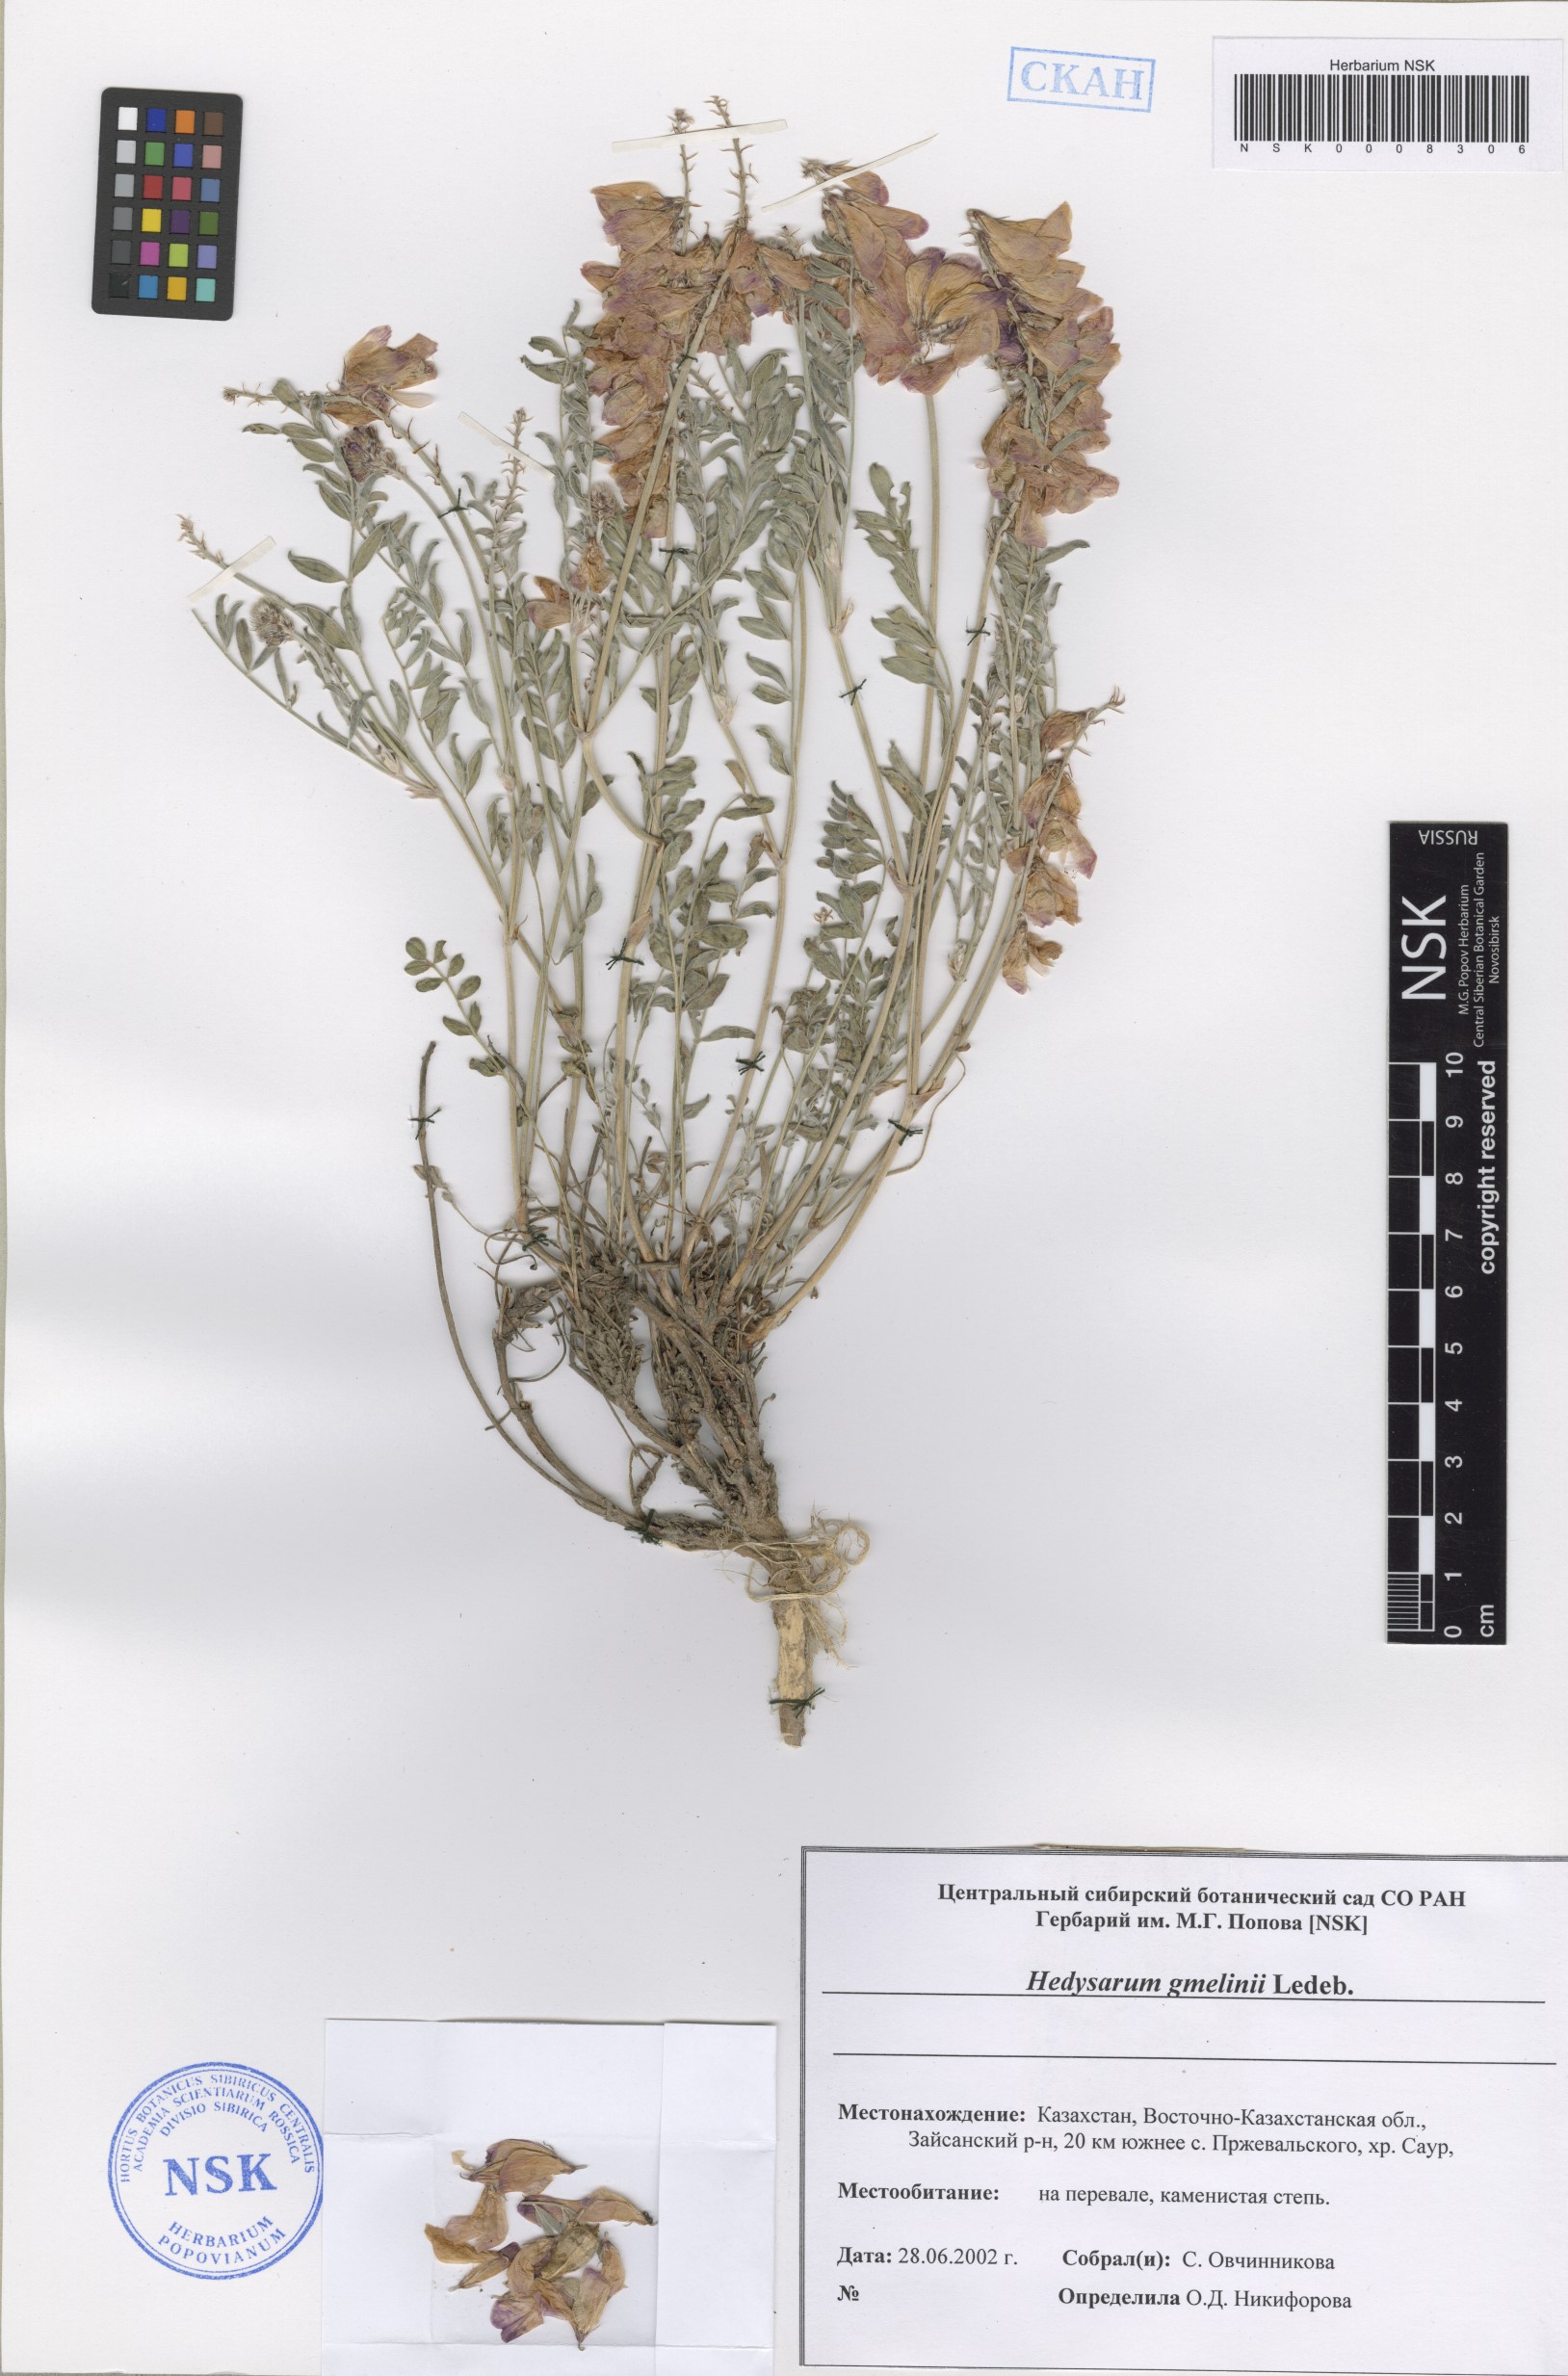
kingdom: Plantae
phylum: Tracheophyta
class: Magnoliopsida
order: Fabales
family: Fabaceae
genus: Hedysarum
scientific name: Hedysarum gmelinii
